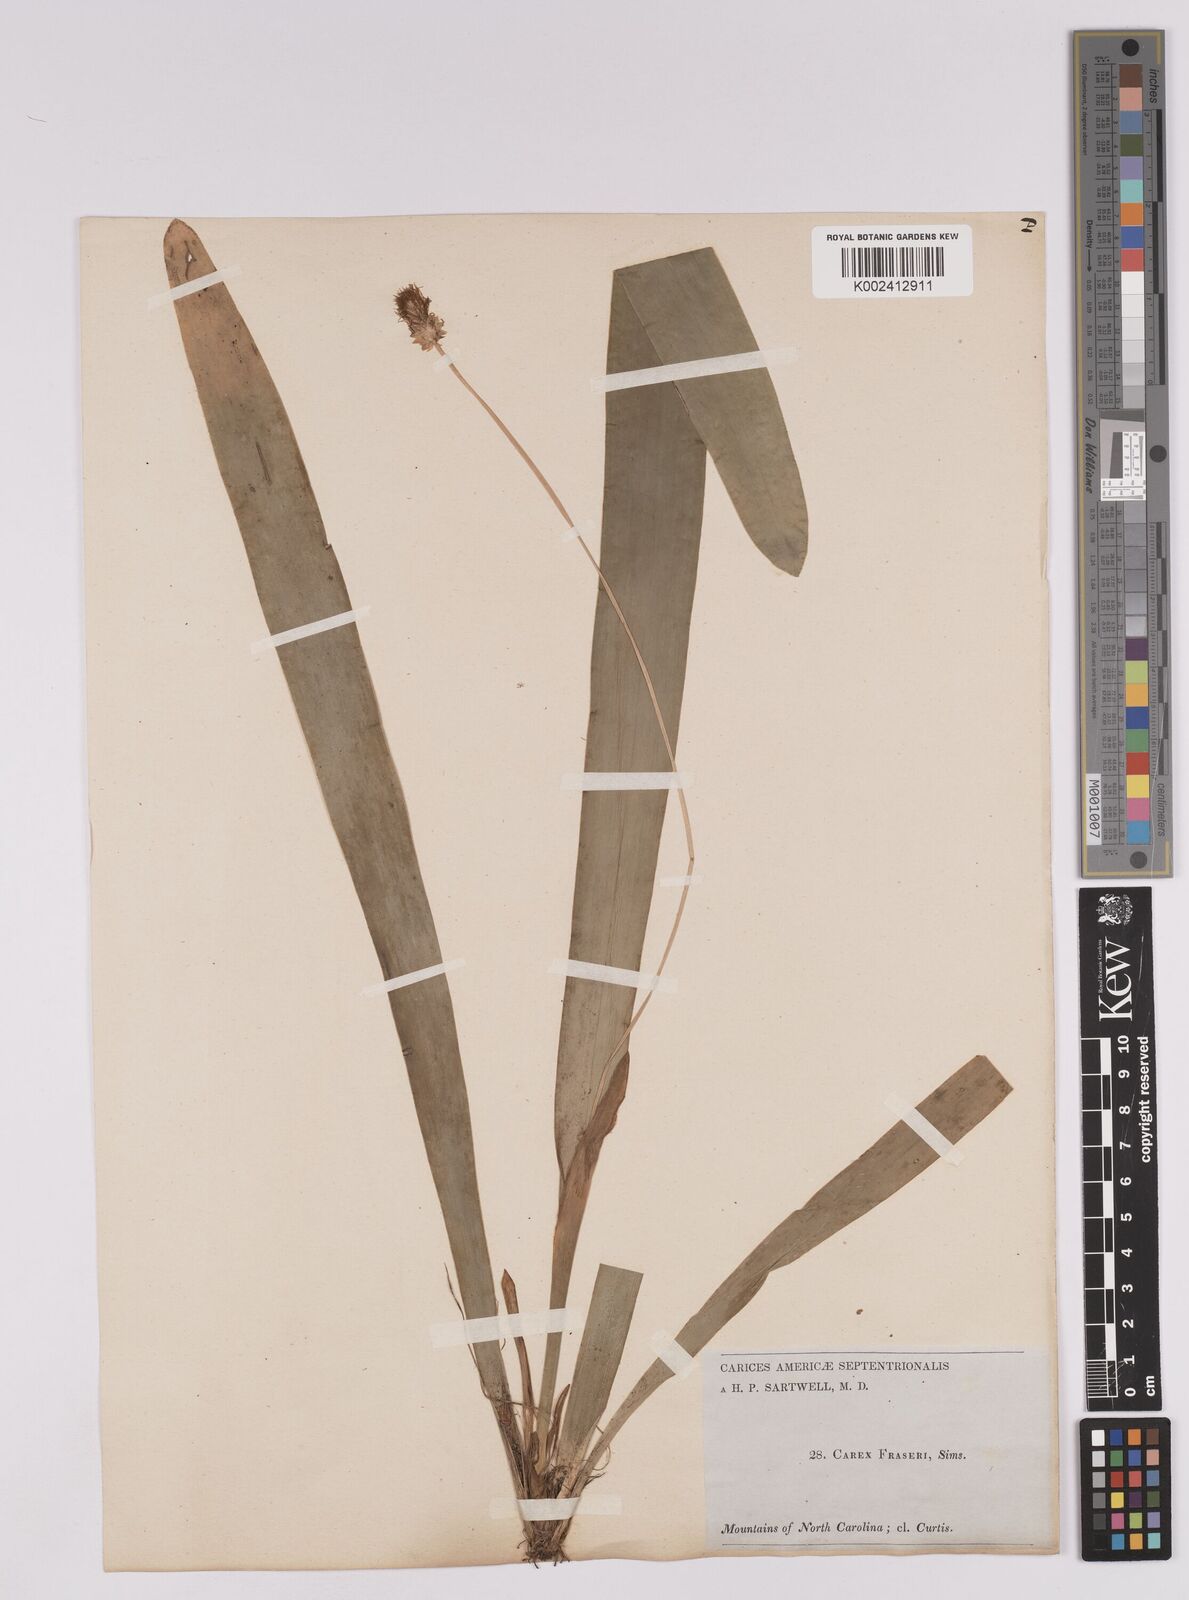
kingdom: Plantae
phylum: Tracheophyta
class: Liliopsida
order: Poales
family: Cyperaceae
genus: Carex
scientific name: Carex fraseriana
